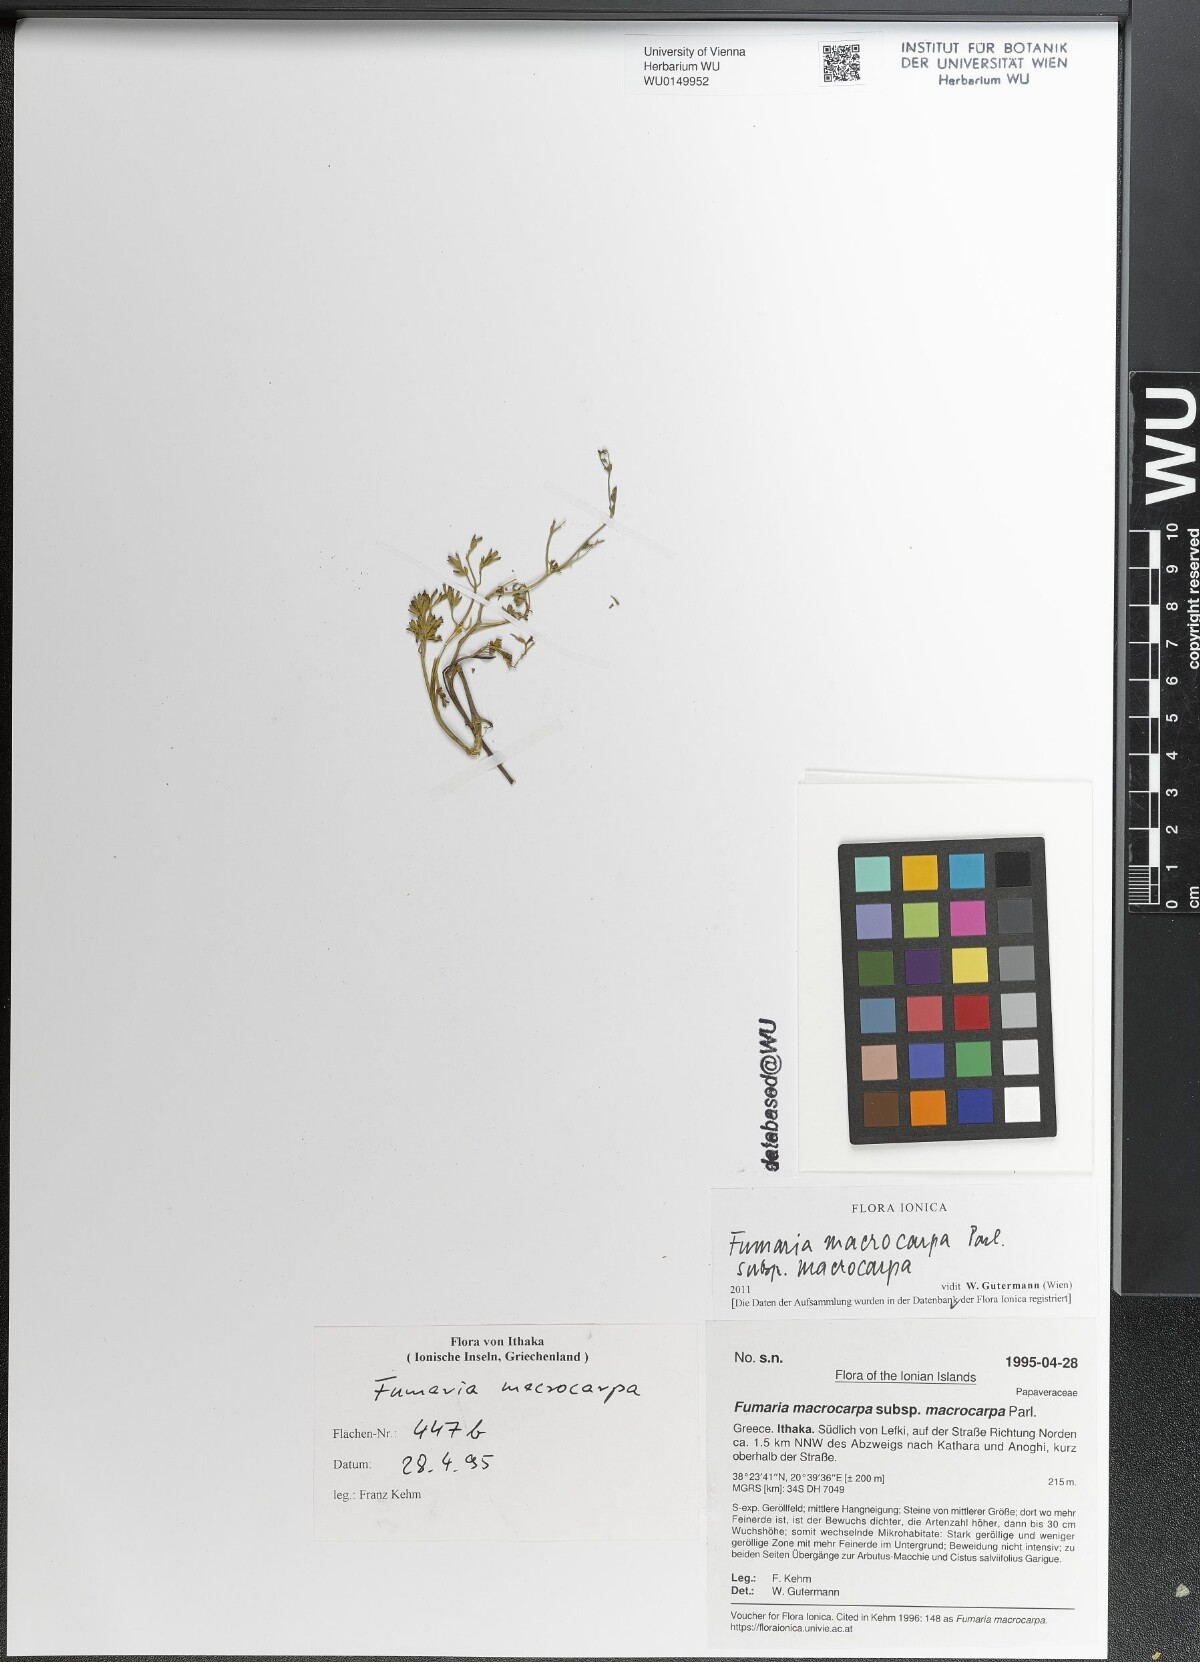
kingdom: Plantae
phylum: Tracheophyta
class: Magnoliopsida
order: Ranunculales
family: Papaveraceae
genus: Fumaria
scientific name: Fumaria macrocarpa
